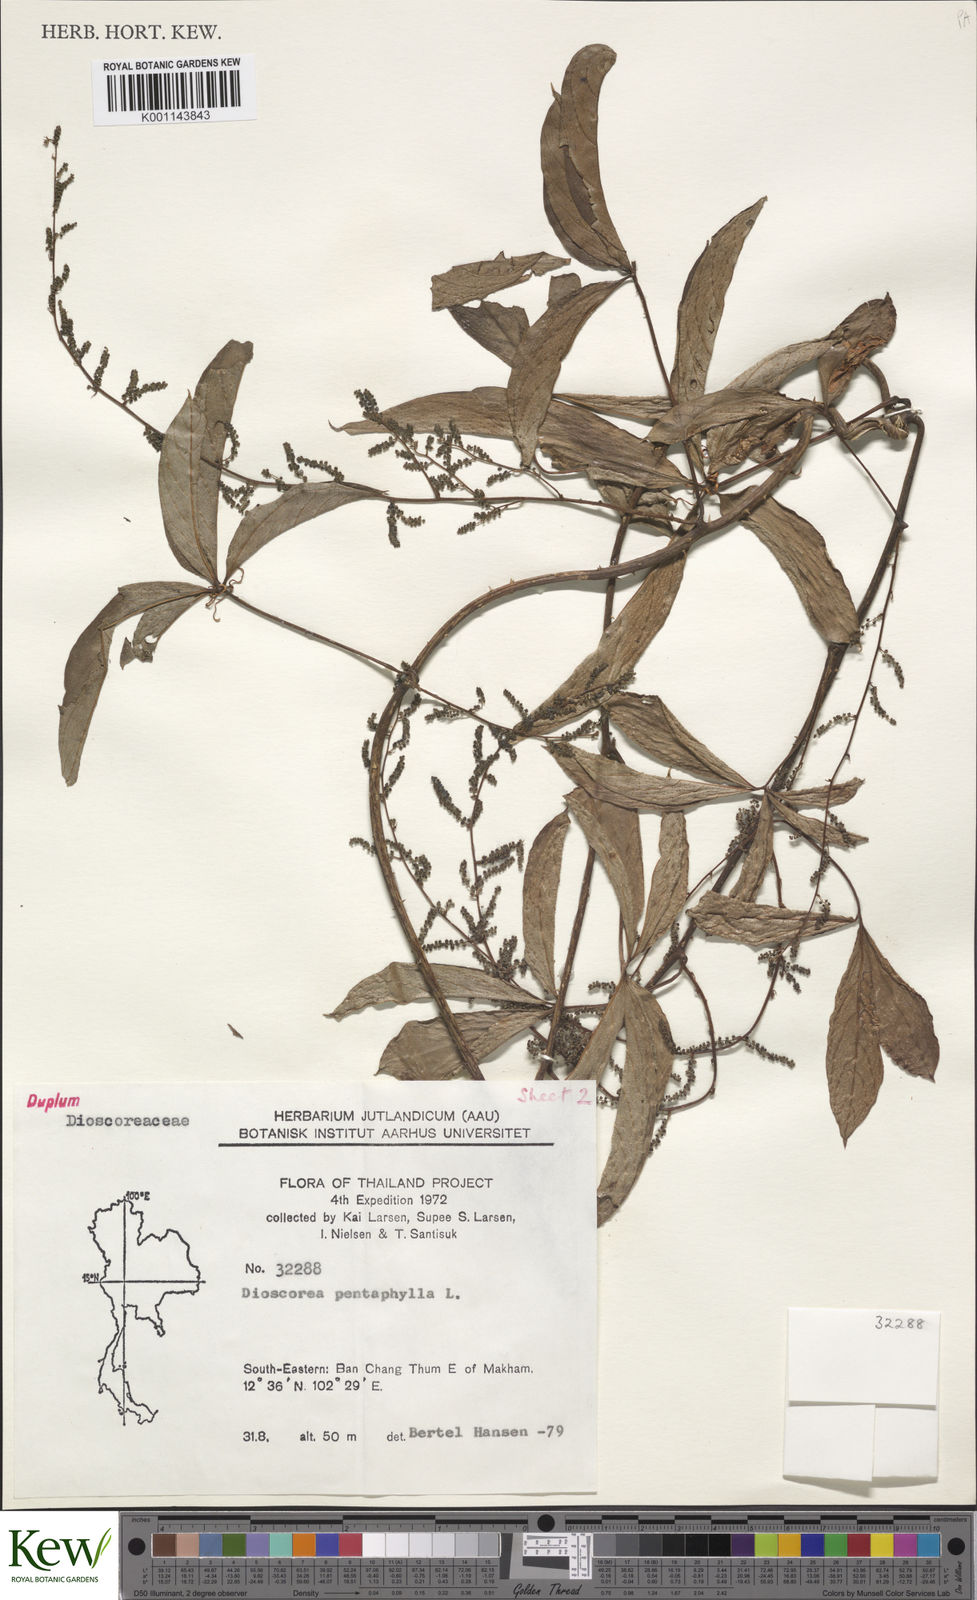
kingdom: Plantae
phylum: Tracheophyta
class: Liliopsida
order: Dioscoreales
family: Dioscoreaceae
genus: Dioscorea
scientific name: Dioscorea pentaphylla
